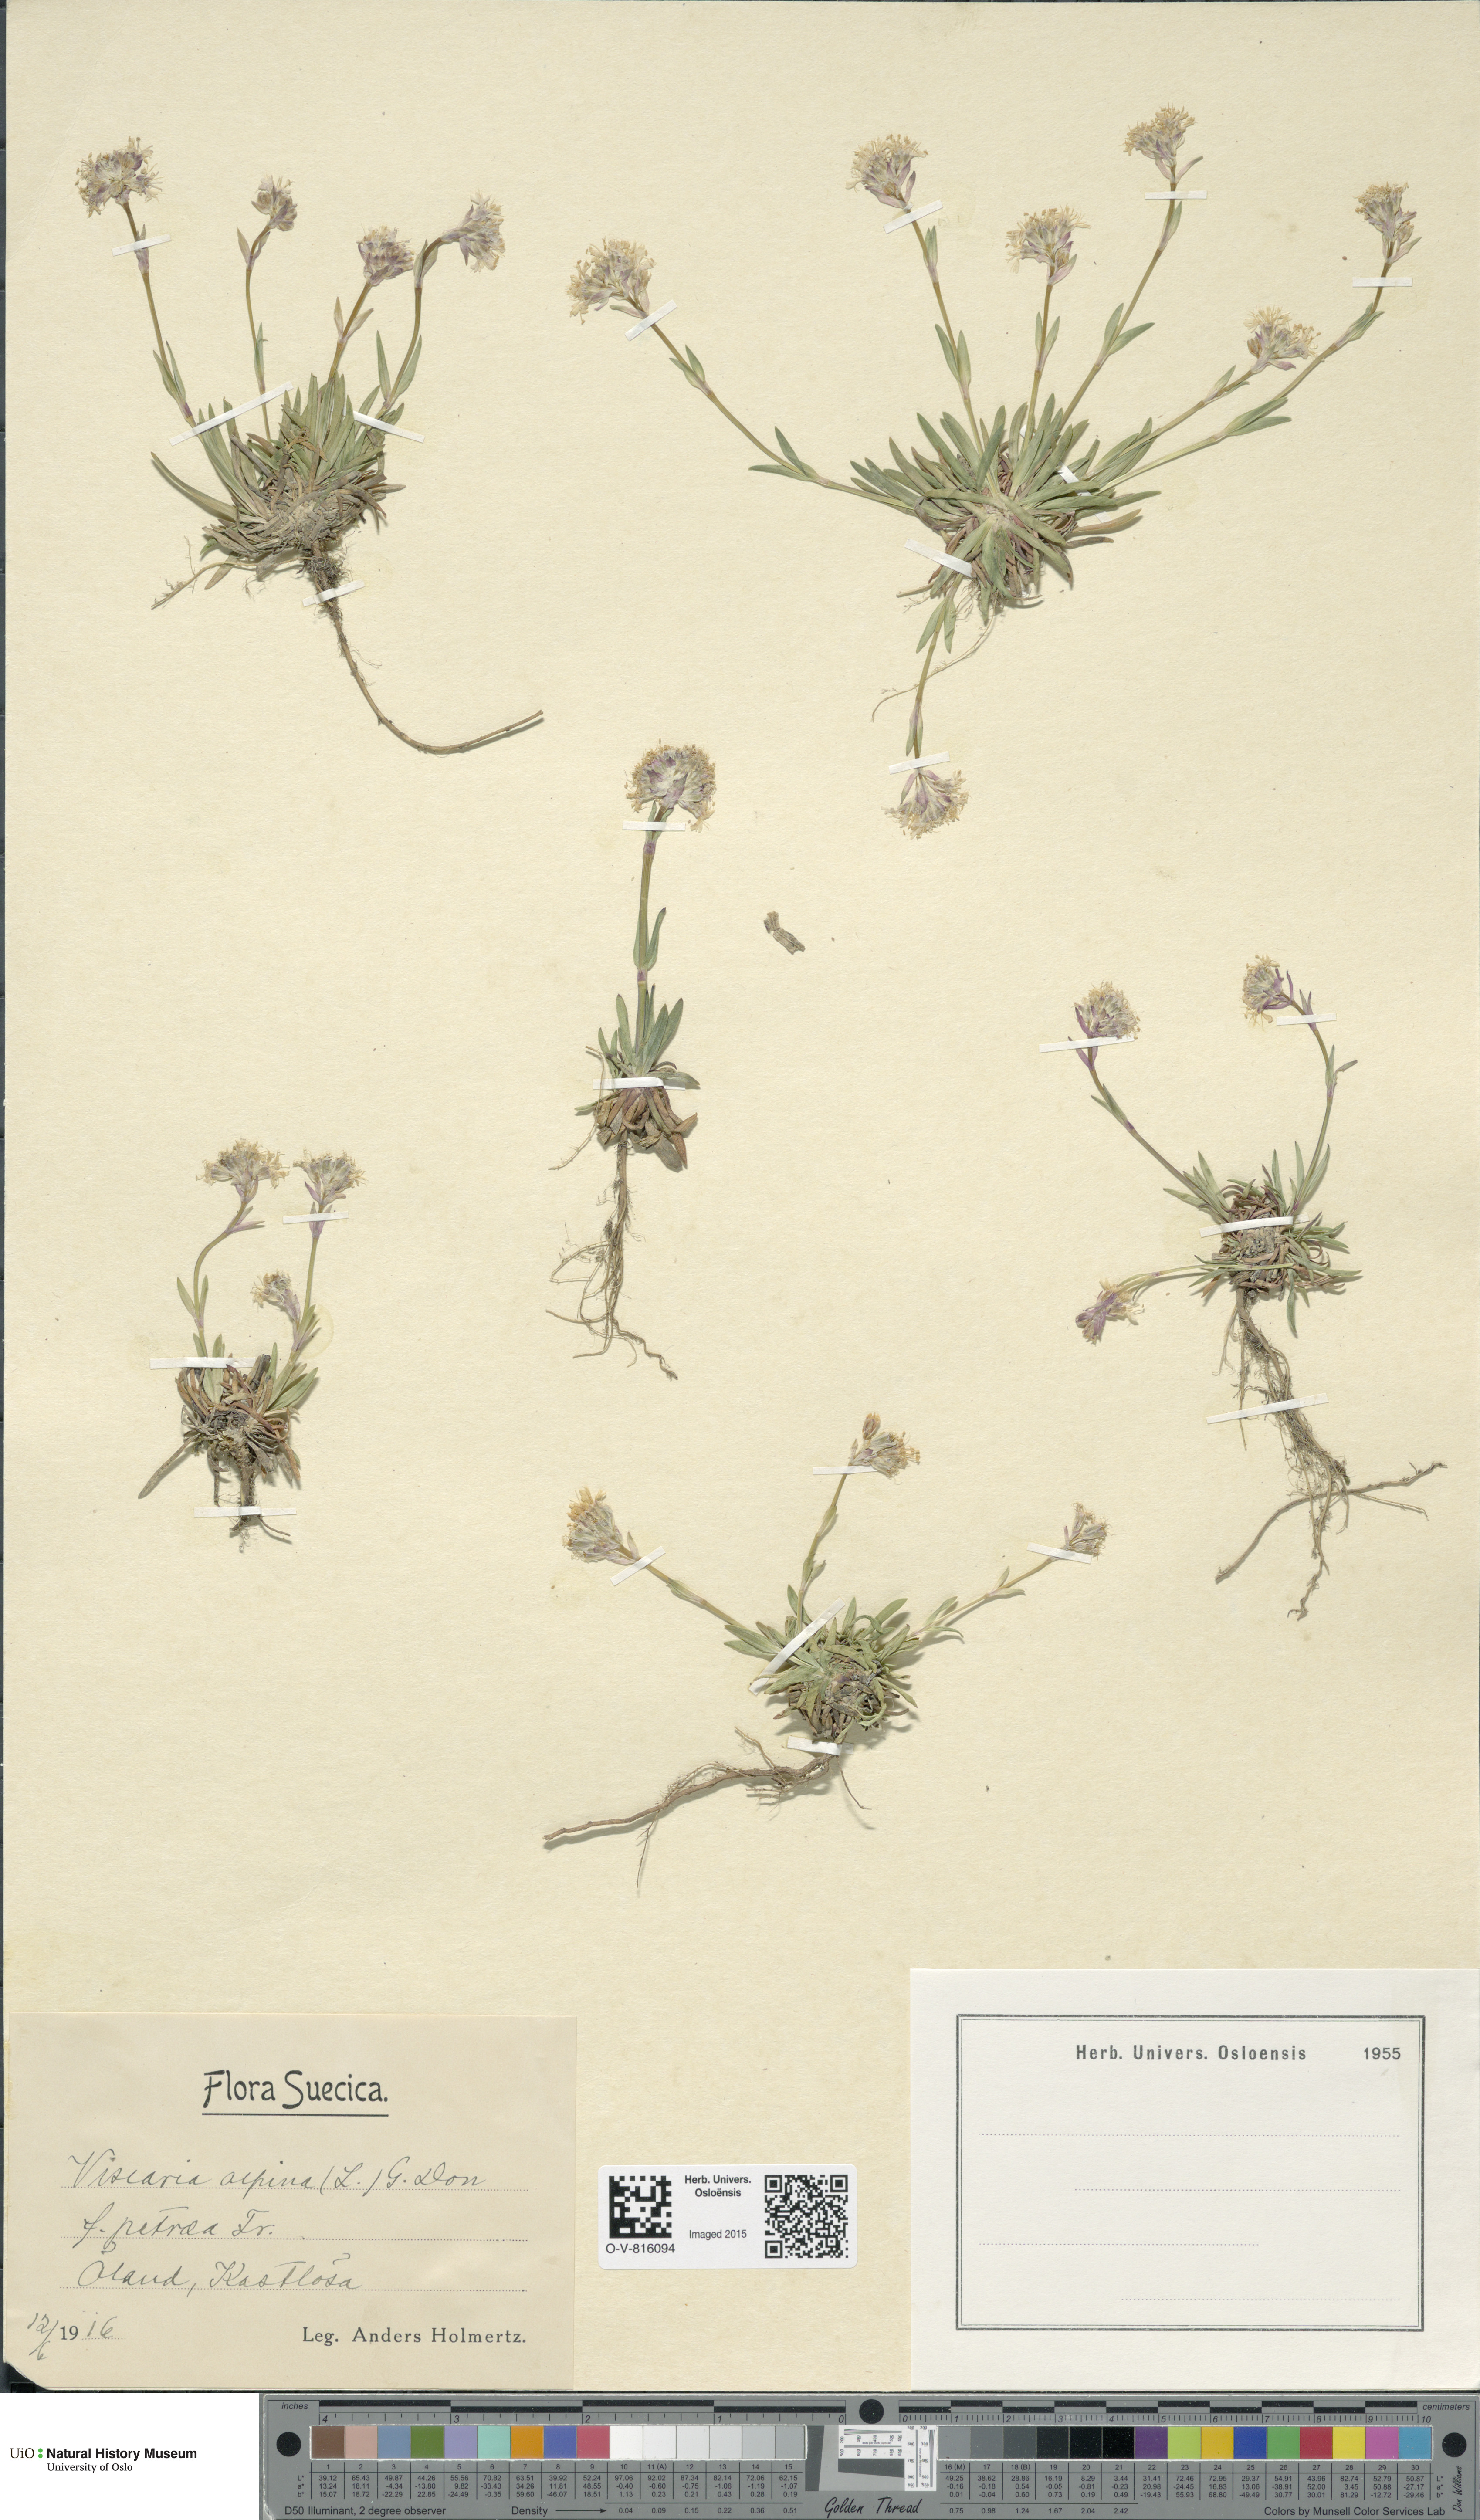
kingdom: Plantae
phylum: Tracheophyta
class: Magnoliopsida
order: Caryophyllales
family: Caryophyllaceae
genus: Viscaria
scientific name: Viscaria alpina
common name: Alpine campion
